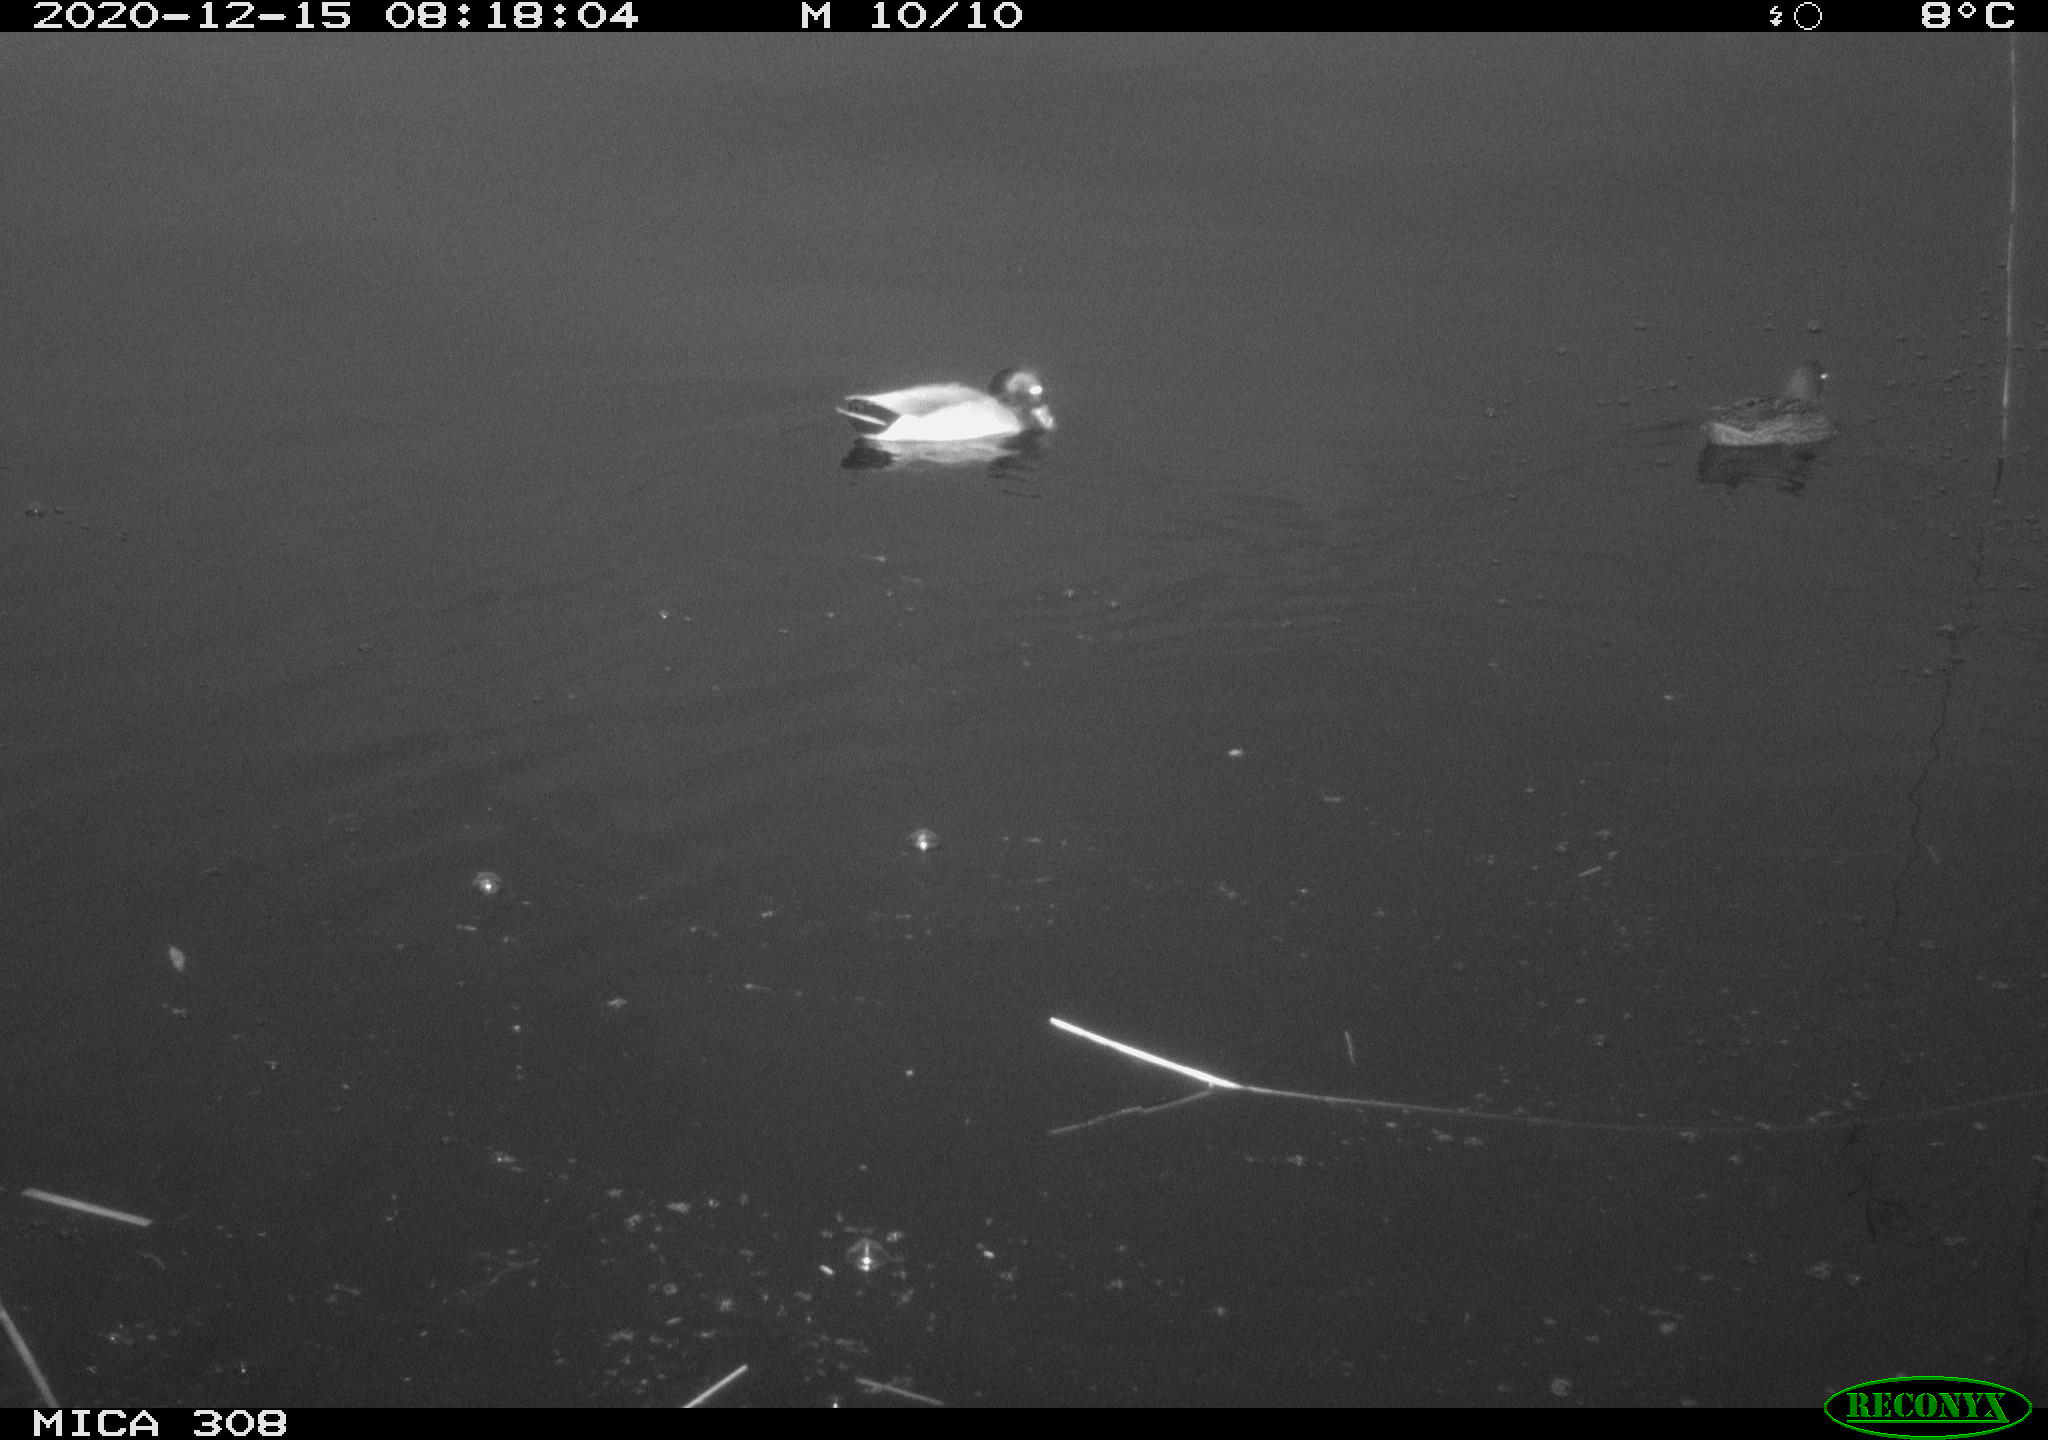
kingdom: Animalia
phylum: Chordata
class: Aves
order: Anseriformes
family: Anatidae
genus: Anas
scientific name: Anas platyrhynchos
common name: Mallard
